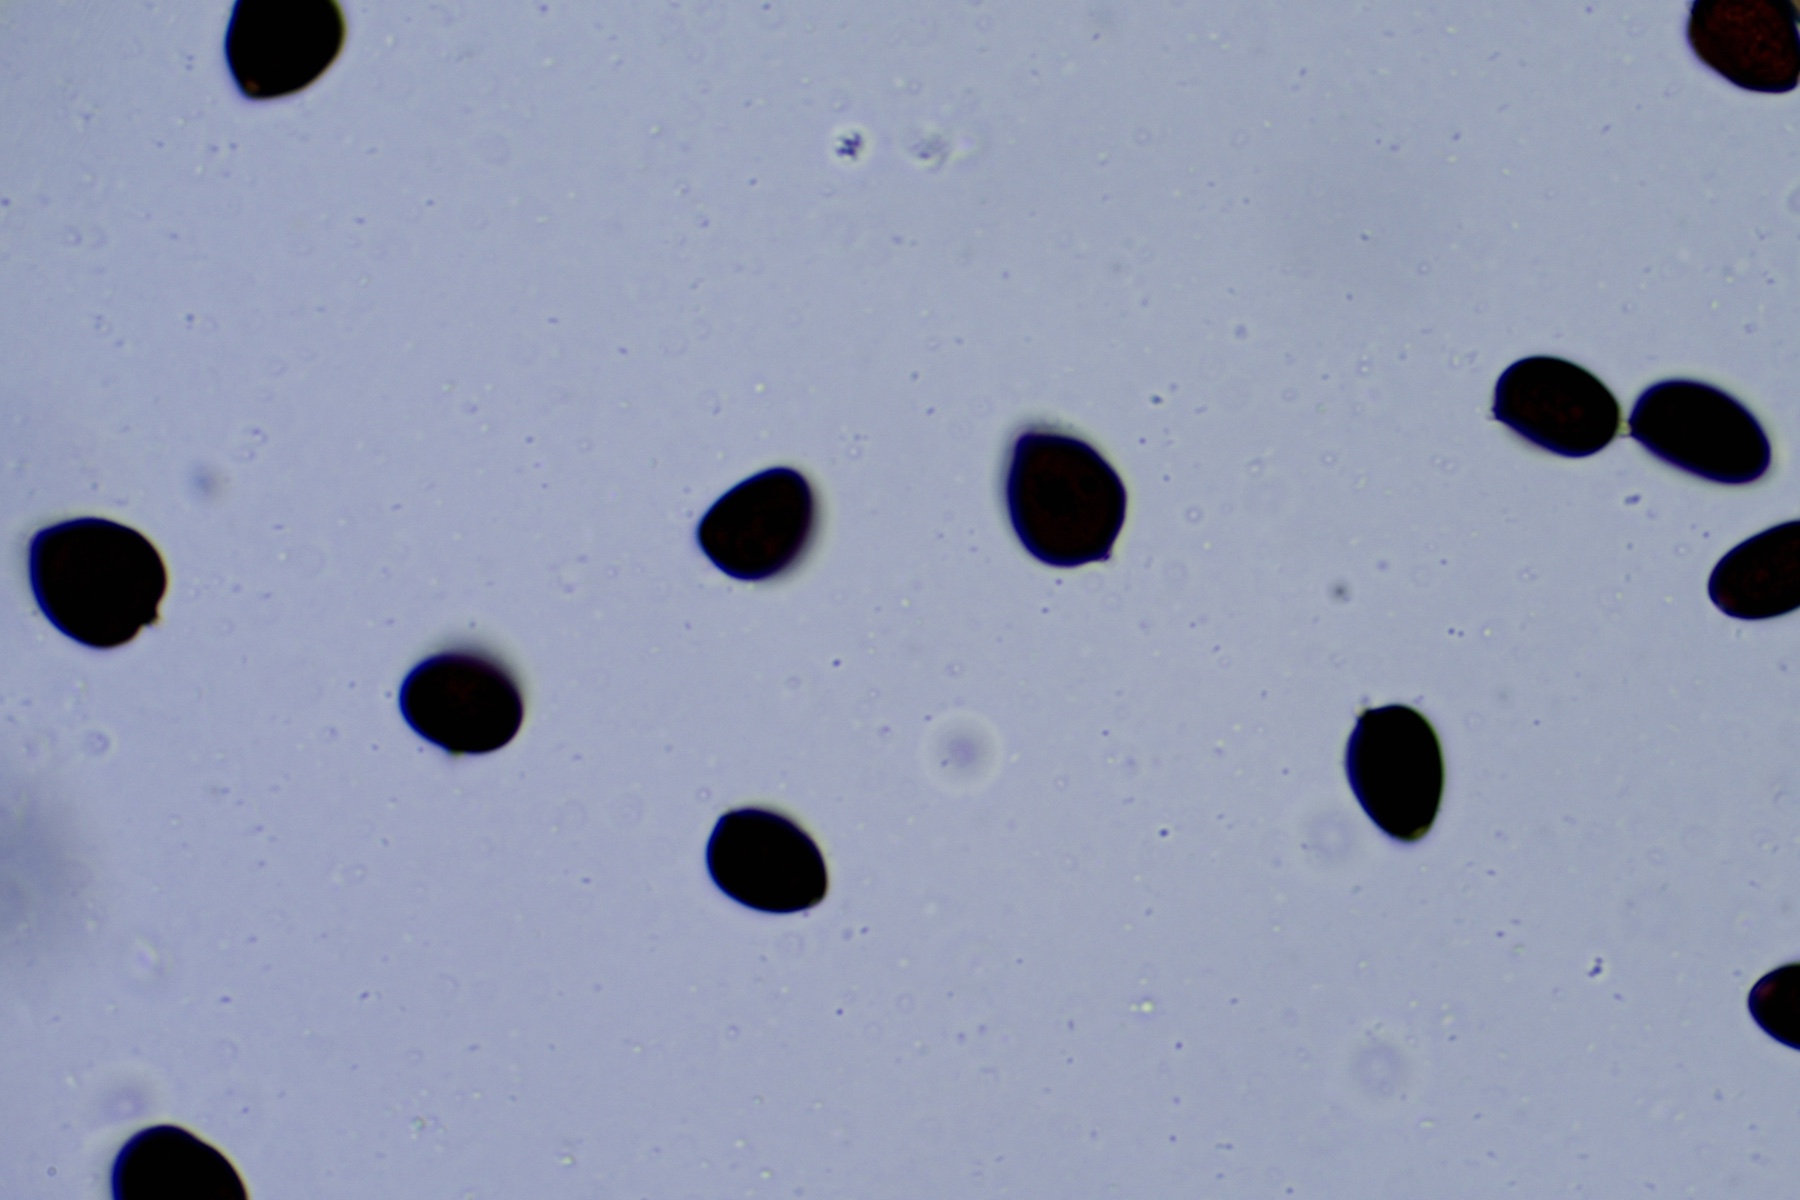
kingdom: Fungi
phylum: Basidiomycota
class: Agaricomycetes
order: Agaricales
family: Psathyrellaceae
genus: Parasola
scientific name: Parasola
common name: hjulhat
